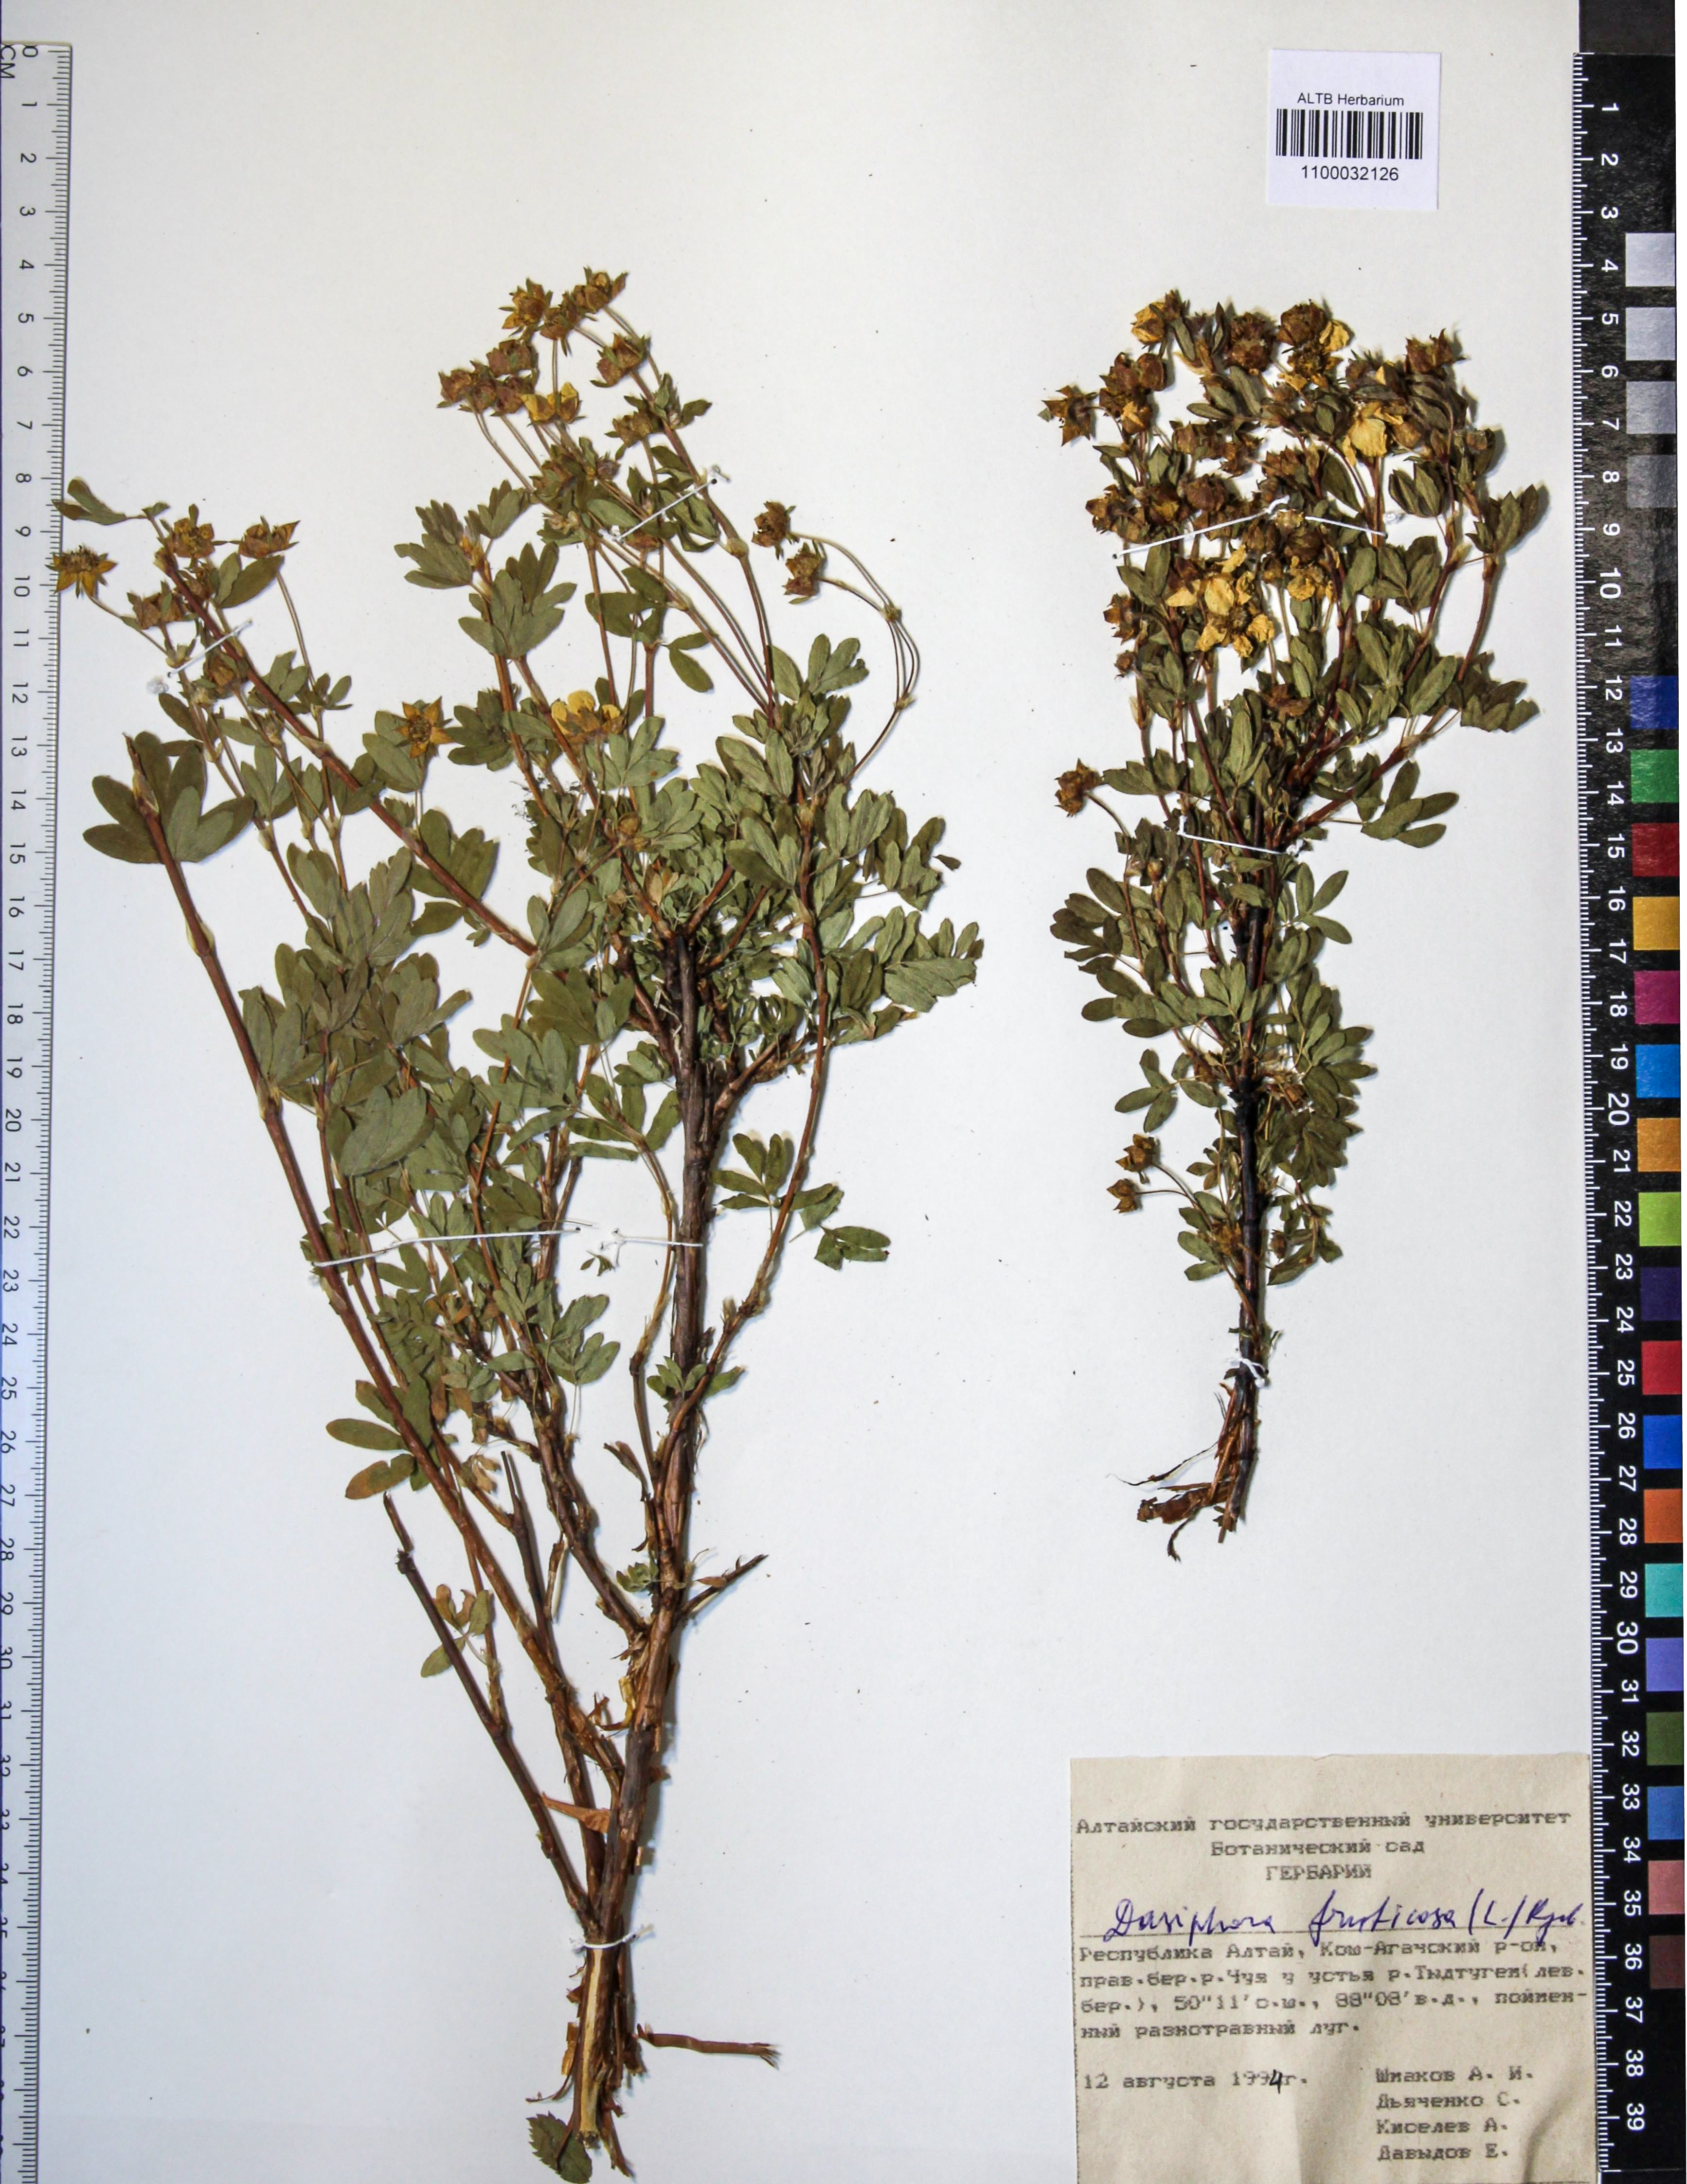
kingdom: Plantae
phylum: Tracheophyta
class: Magnoliopsida
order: Rosales
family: Rosaceae
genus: Dasiphora
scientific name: Dasiphora fruticosa
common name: Shrubby cinquefoil
